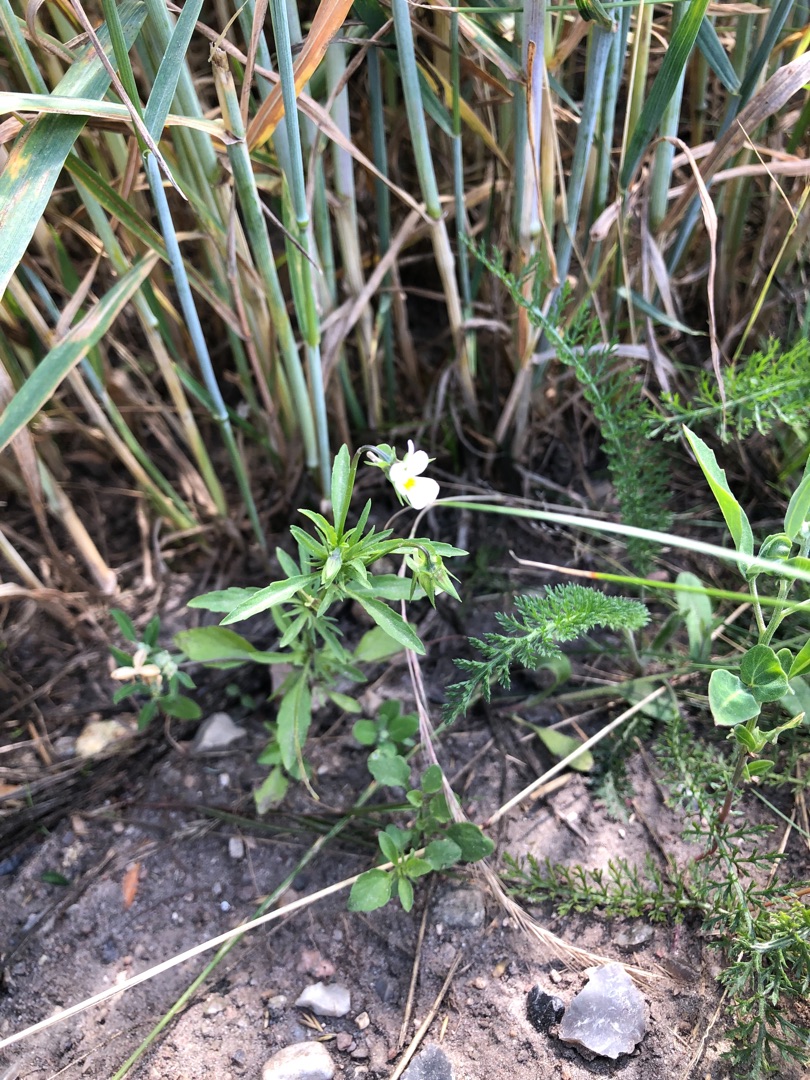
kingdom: Plantae
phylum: Tracheophyta
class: Magnoliopsida
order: Malpighiales
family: Violaceae
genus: Viola
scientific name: Viola arvensis
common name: Ager-stedmoderblomst
